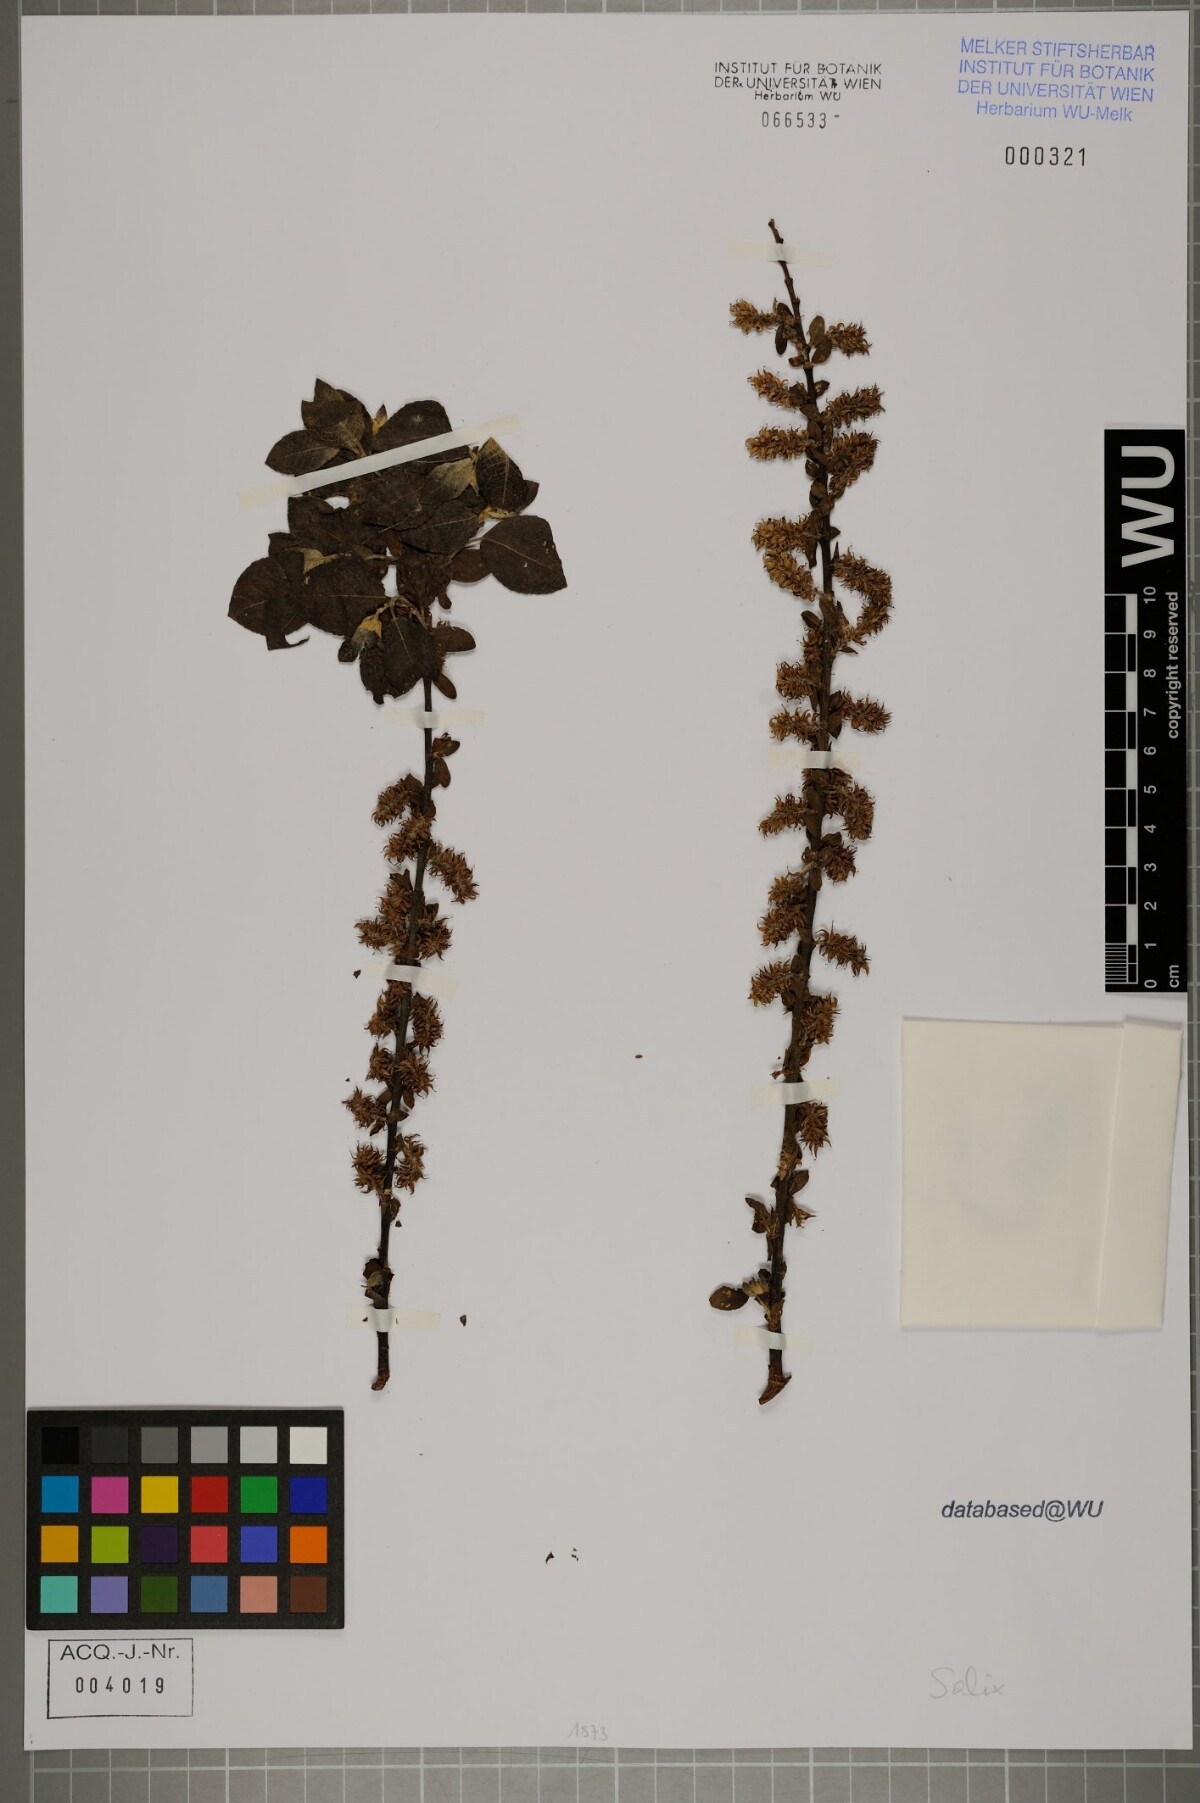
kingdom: Plantae
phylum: Tracheophyta
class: Magnoliopsida
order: Malpighiales
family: Salicaceae
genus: Salix
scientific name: Salix
